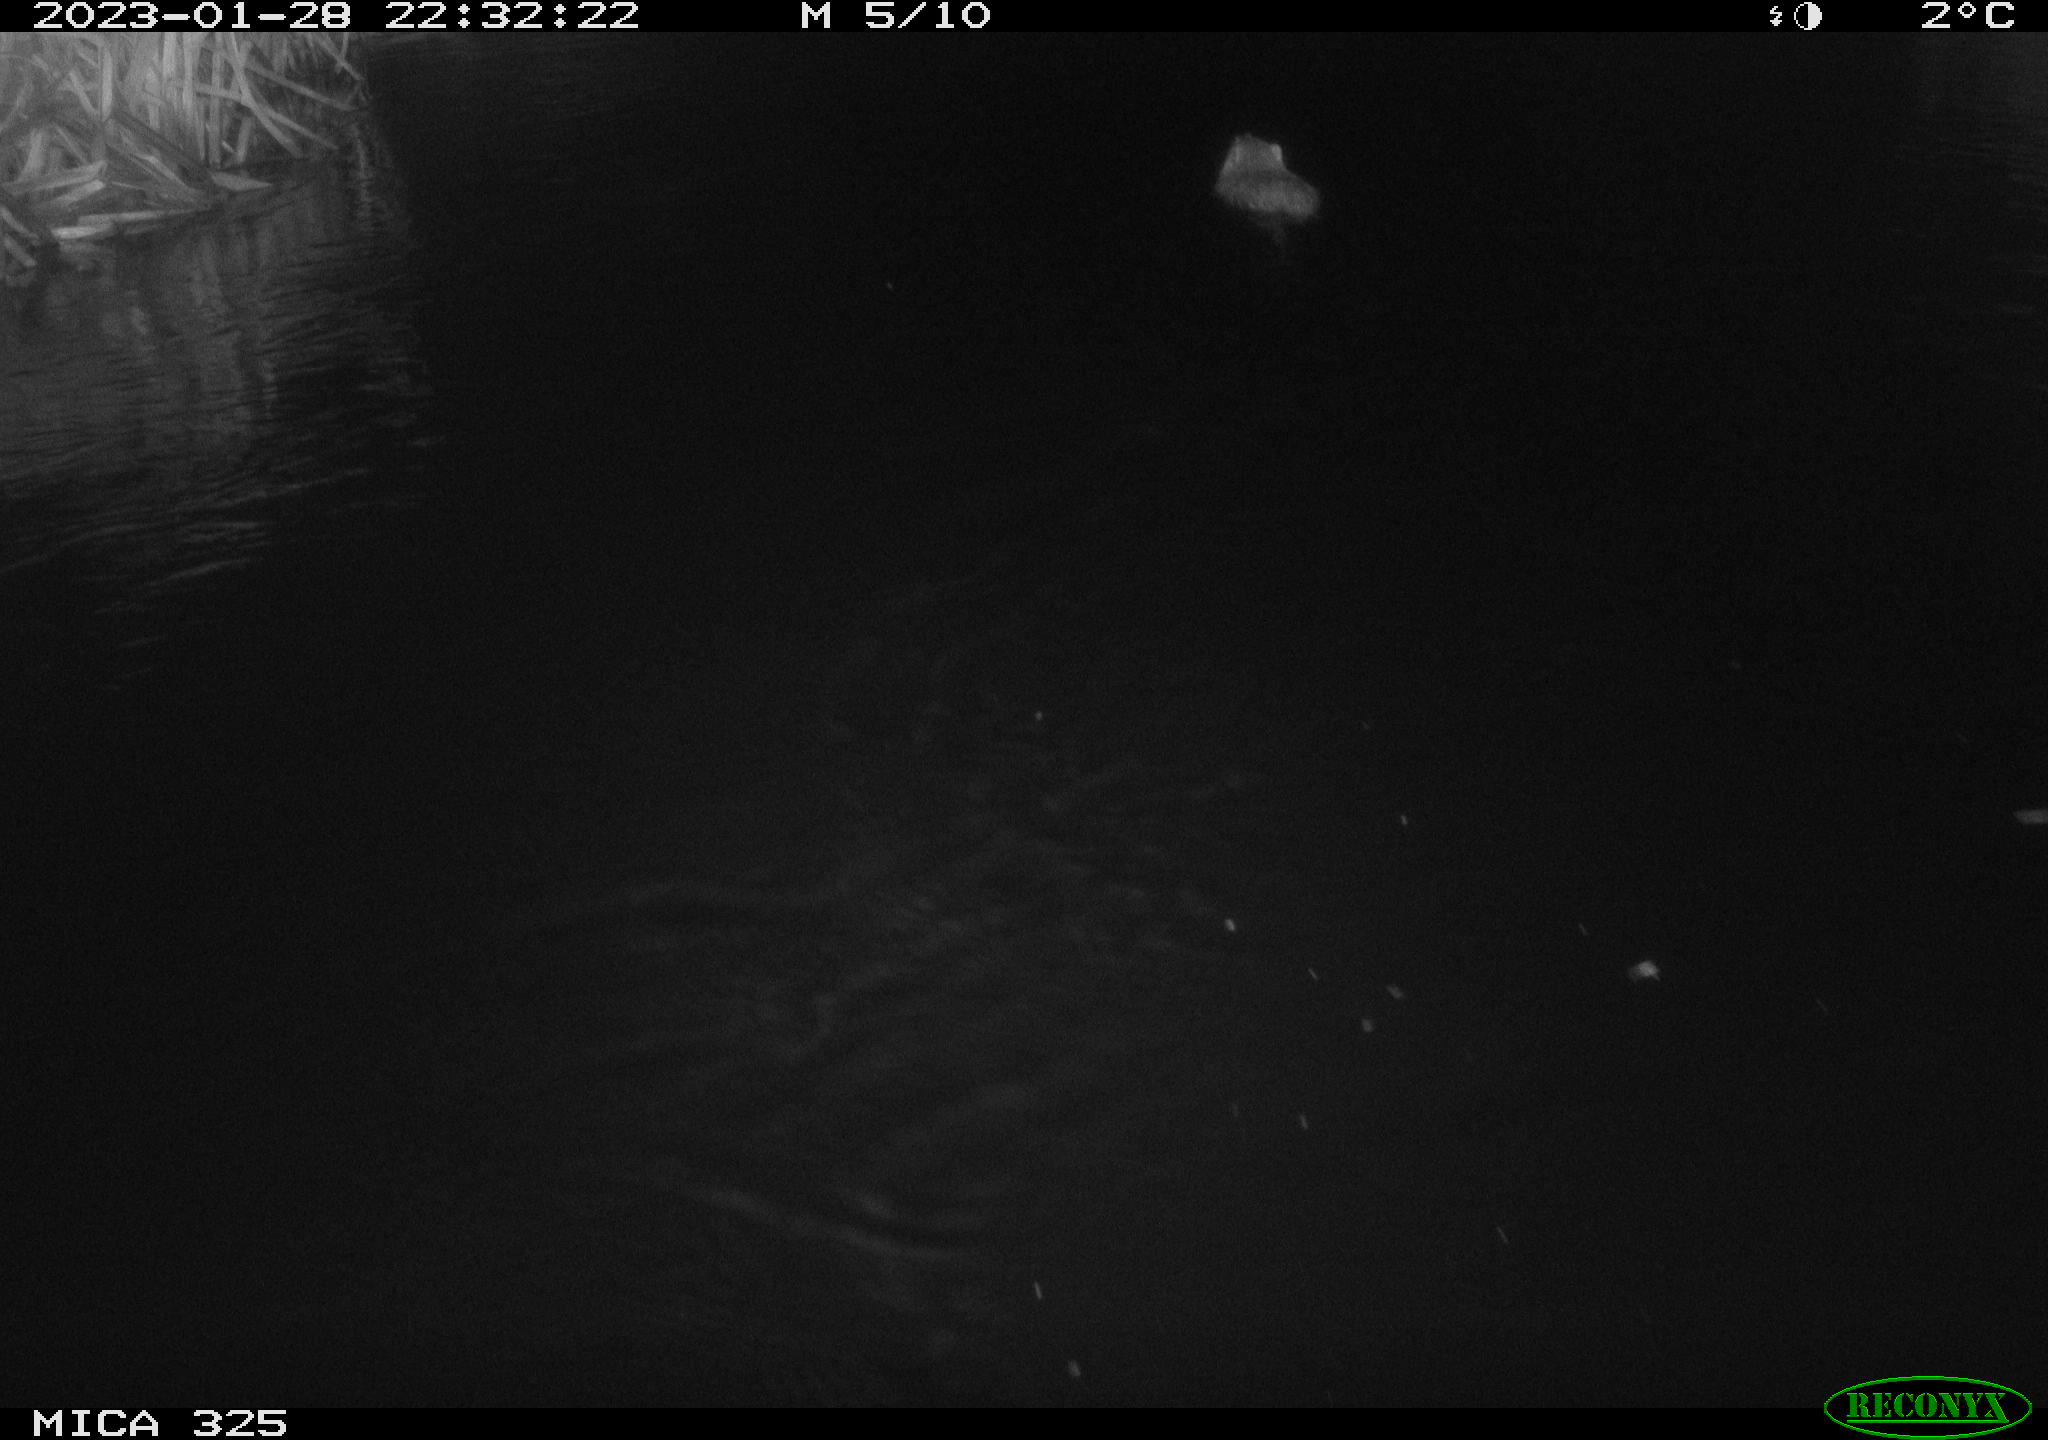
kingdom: Animalia
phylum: Chordata
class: Mammalia
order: Rodentia
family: Cricetidae
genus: Ondatra
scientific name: Ondatra zibethicus
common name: Muskrat
